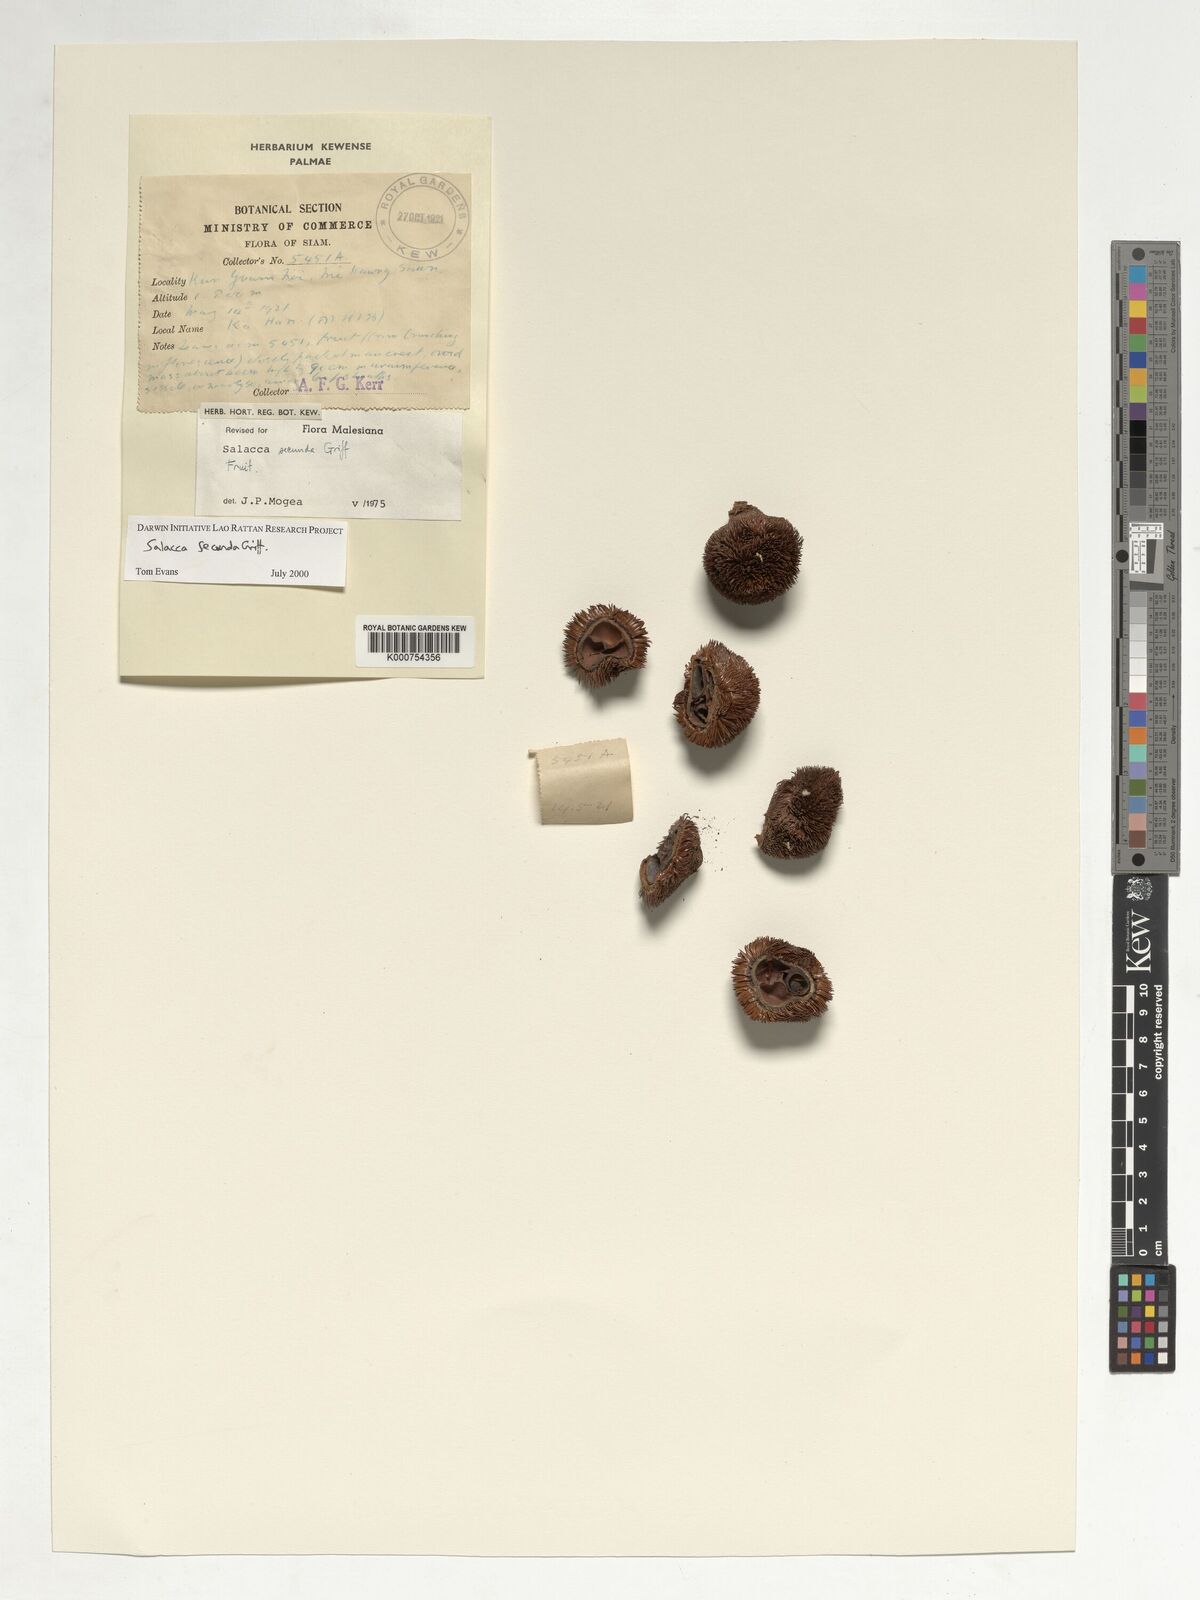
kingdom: Plantae
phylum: Tracheophyta
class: Liliopsida
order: Arecales
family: Arecaceae
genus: Salacca
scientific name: Salacca secunda
